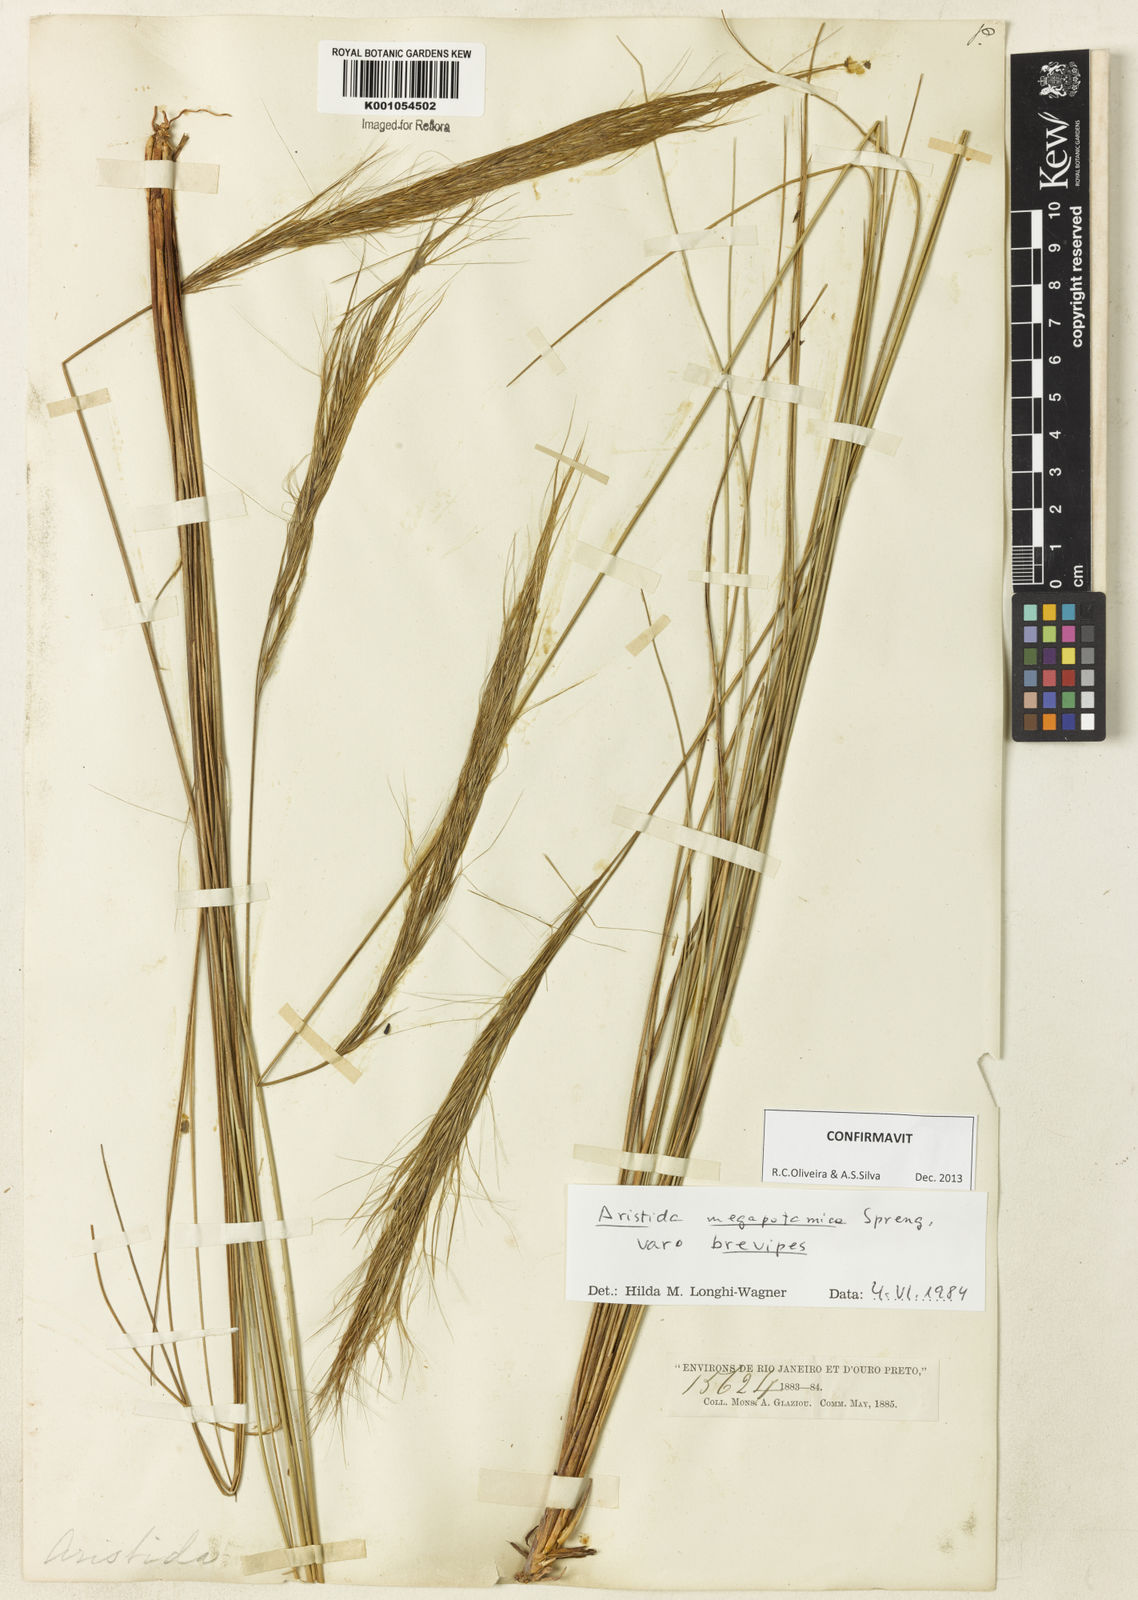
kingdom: Plantae
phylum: Tracheophyta
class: Liliopsida
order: Poales
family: Poaceae
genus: Aristida
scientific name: Aristida megapotamica
